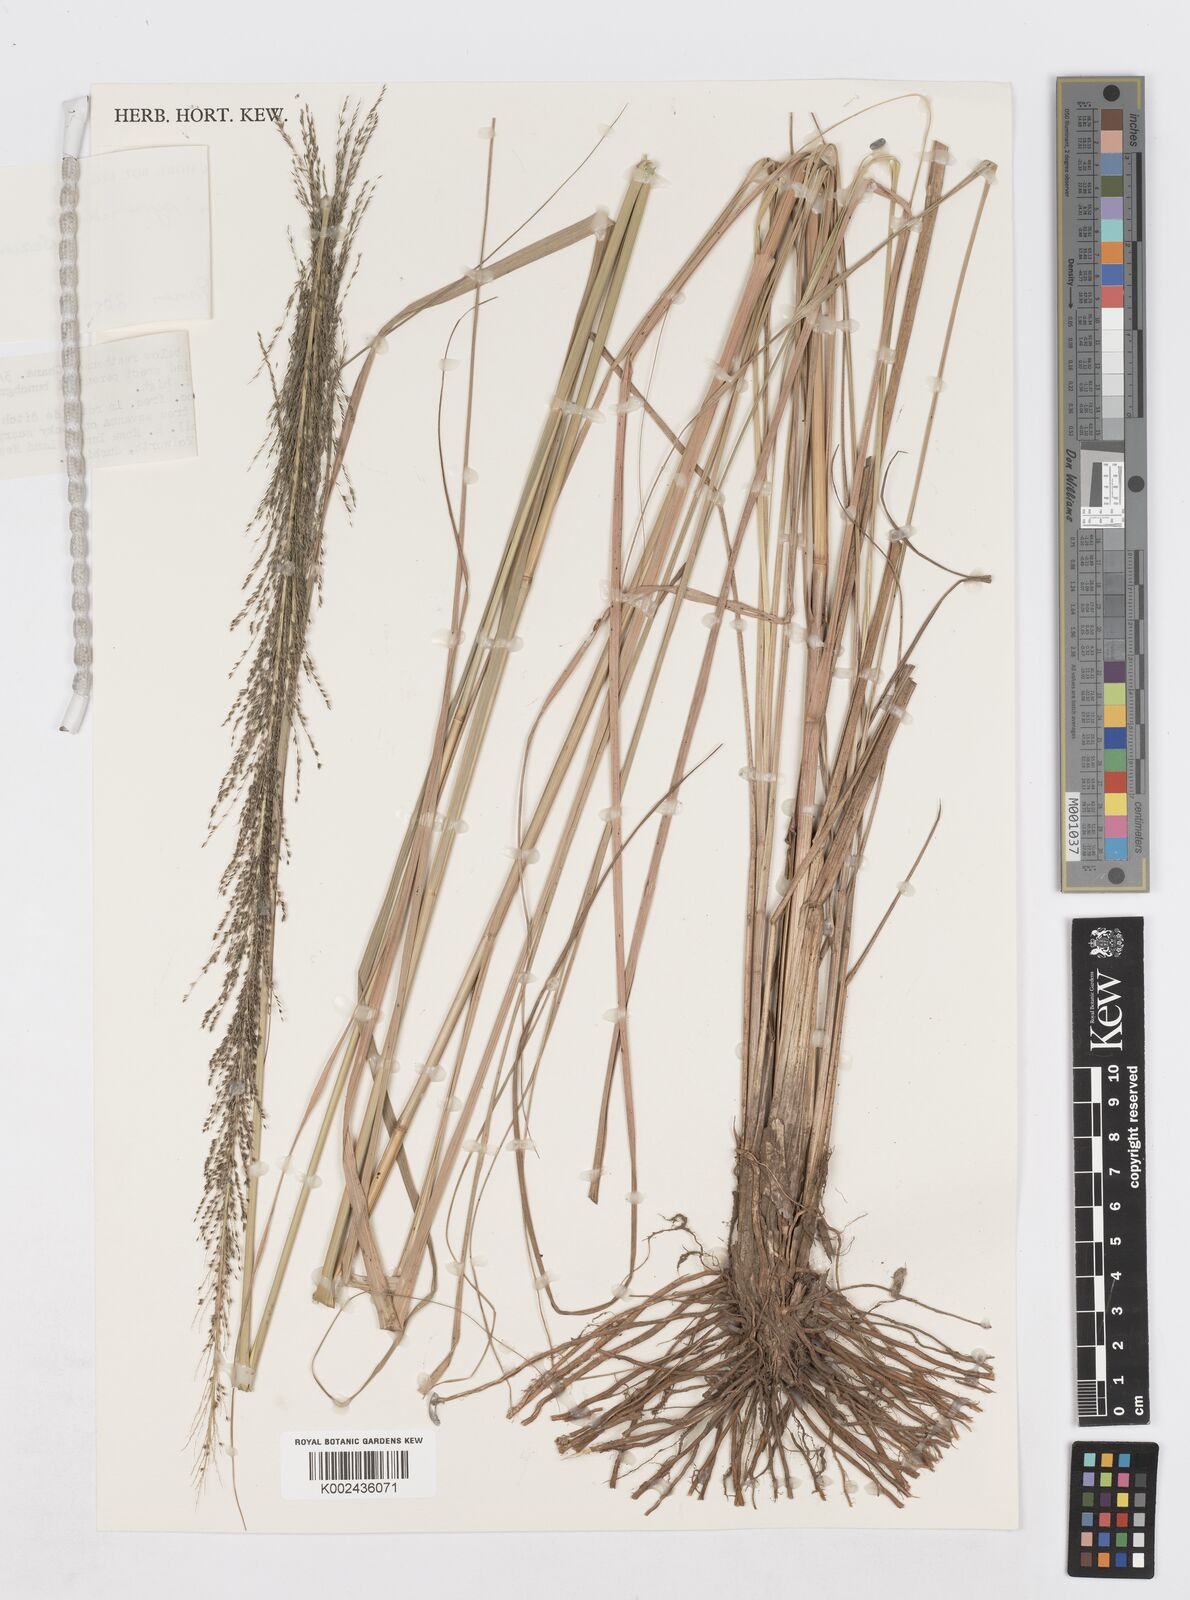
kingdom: Plantae
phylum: Tracheophyta
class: Liliopsida
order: Poales
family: Poaceae
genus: Sporobolus
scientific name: Sporobolus pyramidalis
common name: West indian dropseed
